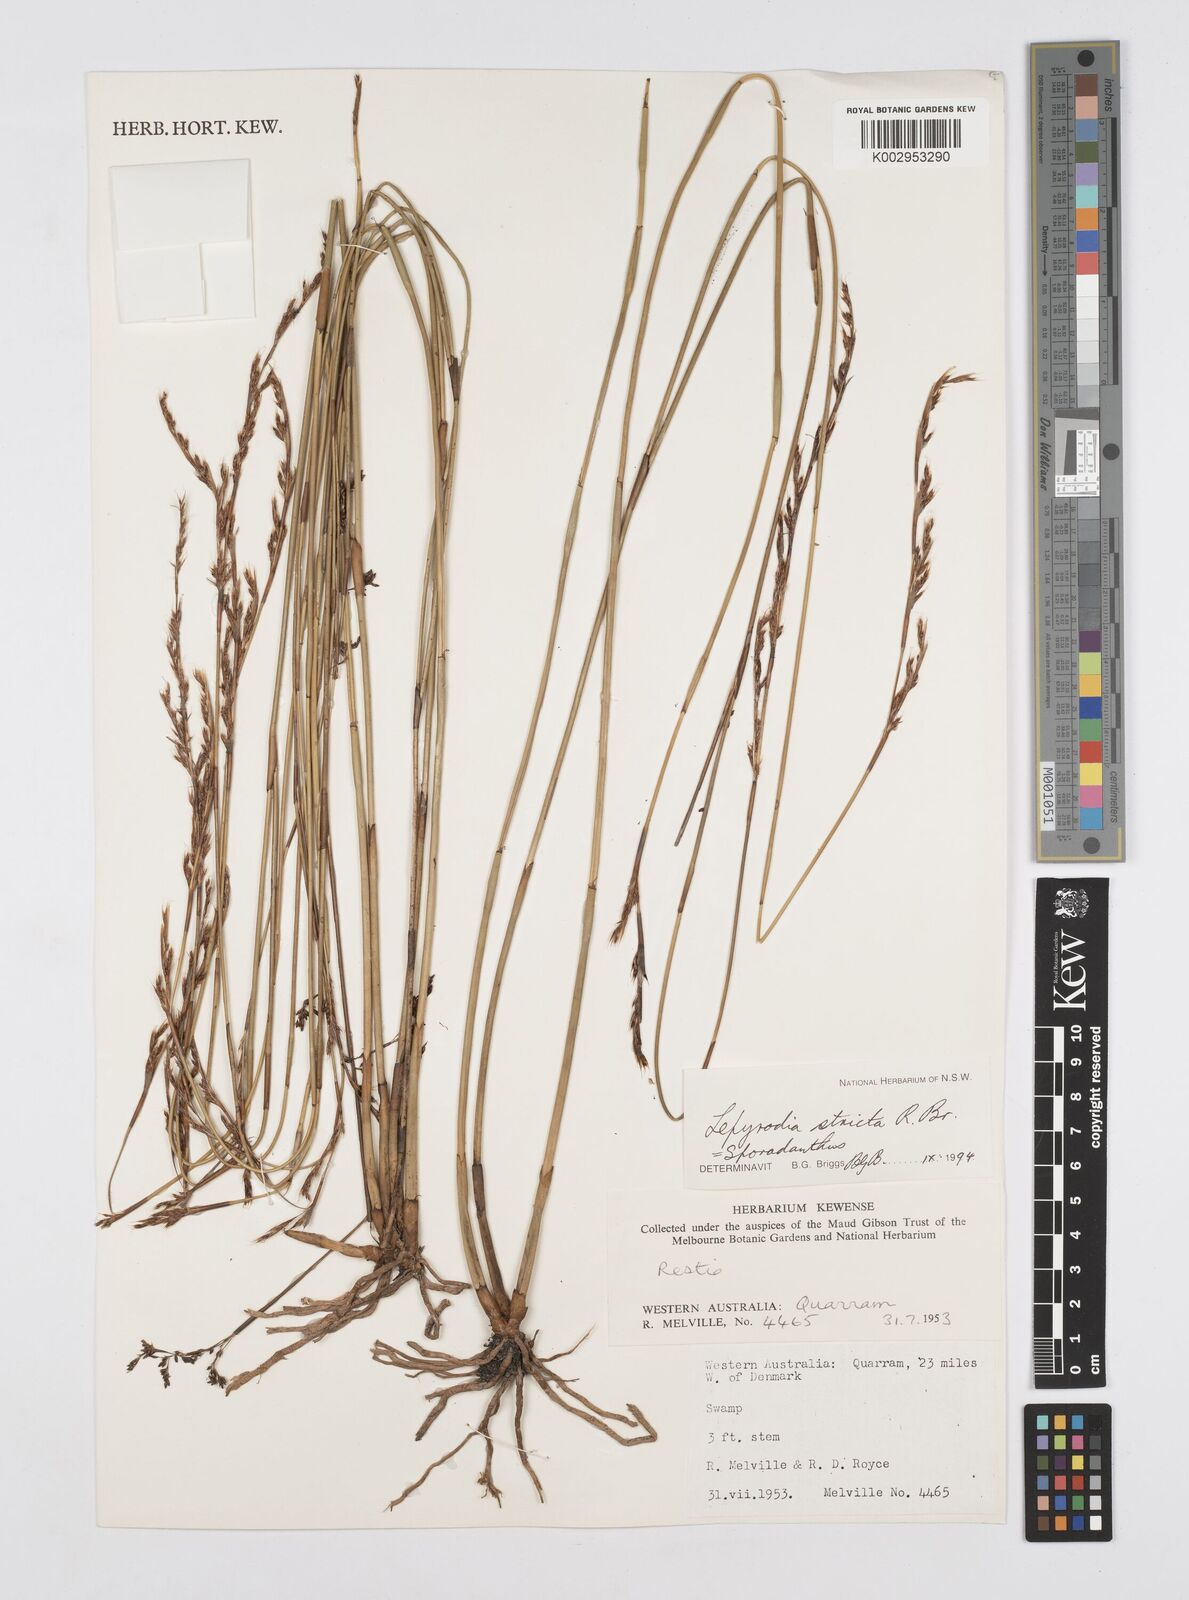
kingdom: Plantae
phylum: Tracheophyta
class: Liliopsida
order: Poales
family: Restionaceae
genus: Sporadanthus
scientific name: Sporadanthus strictus
